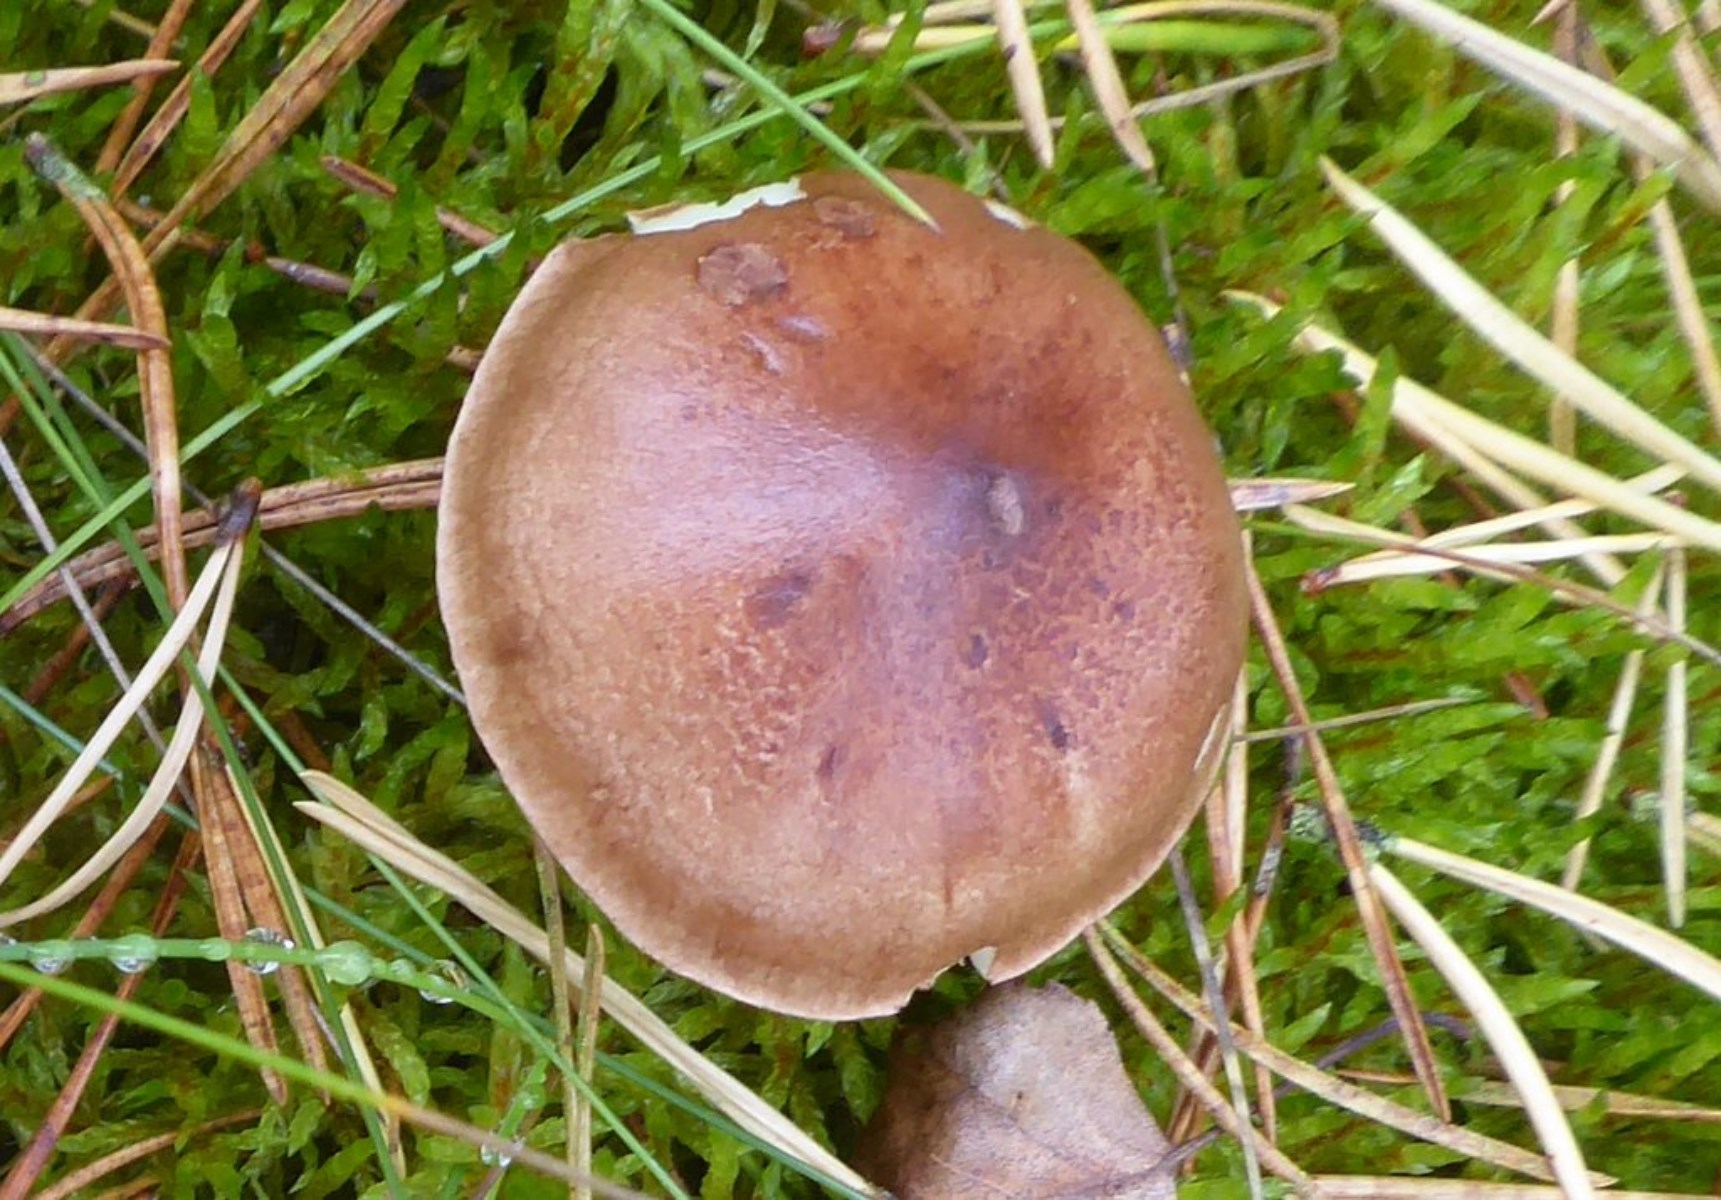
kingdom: Fungi
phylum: Basidiomycota
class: Agaricomycetes
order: Agaricales
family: Tricholomataceae
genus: Tricholoma
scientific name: Tricholoma fulvum
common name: birke-ridderhat
